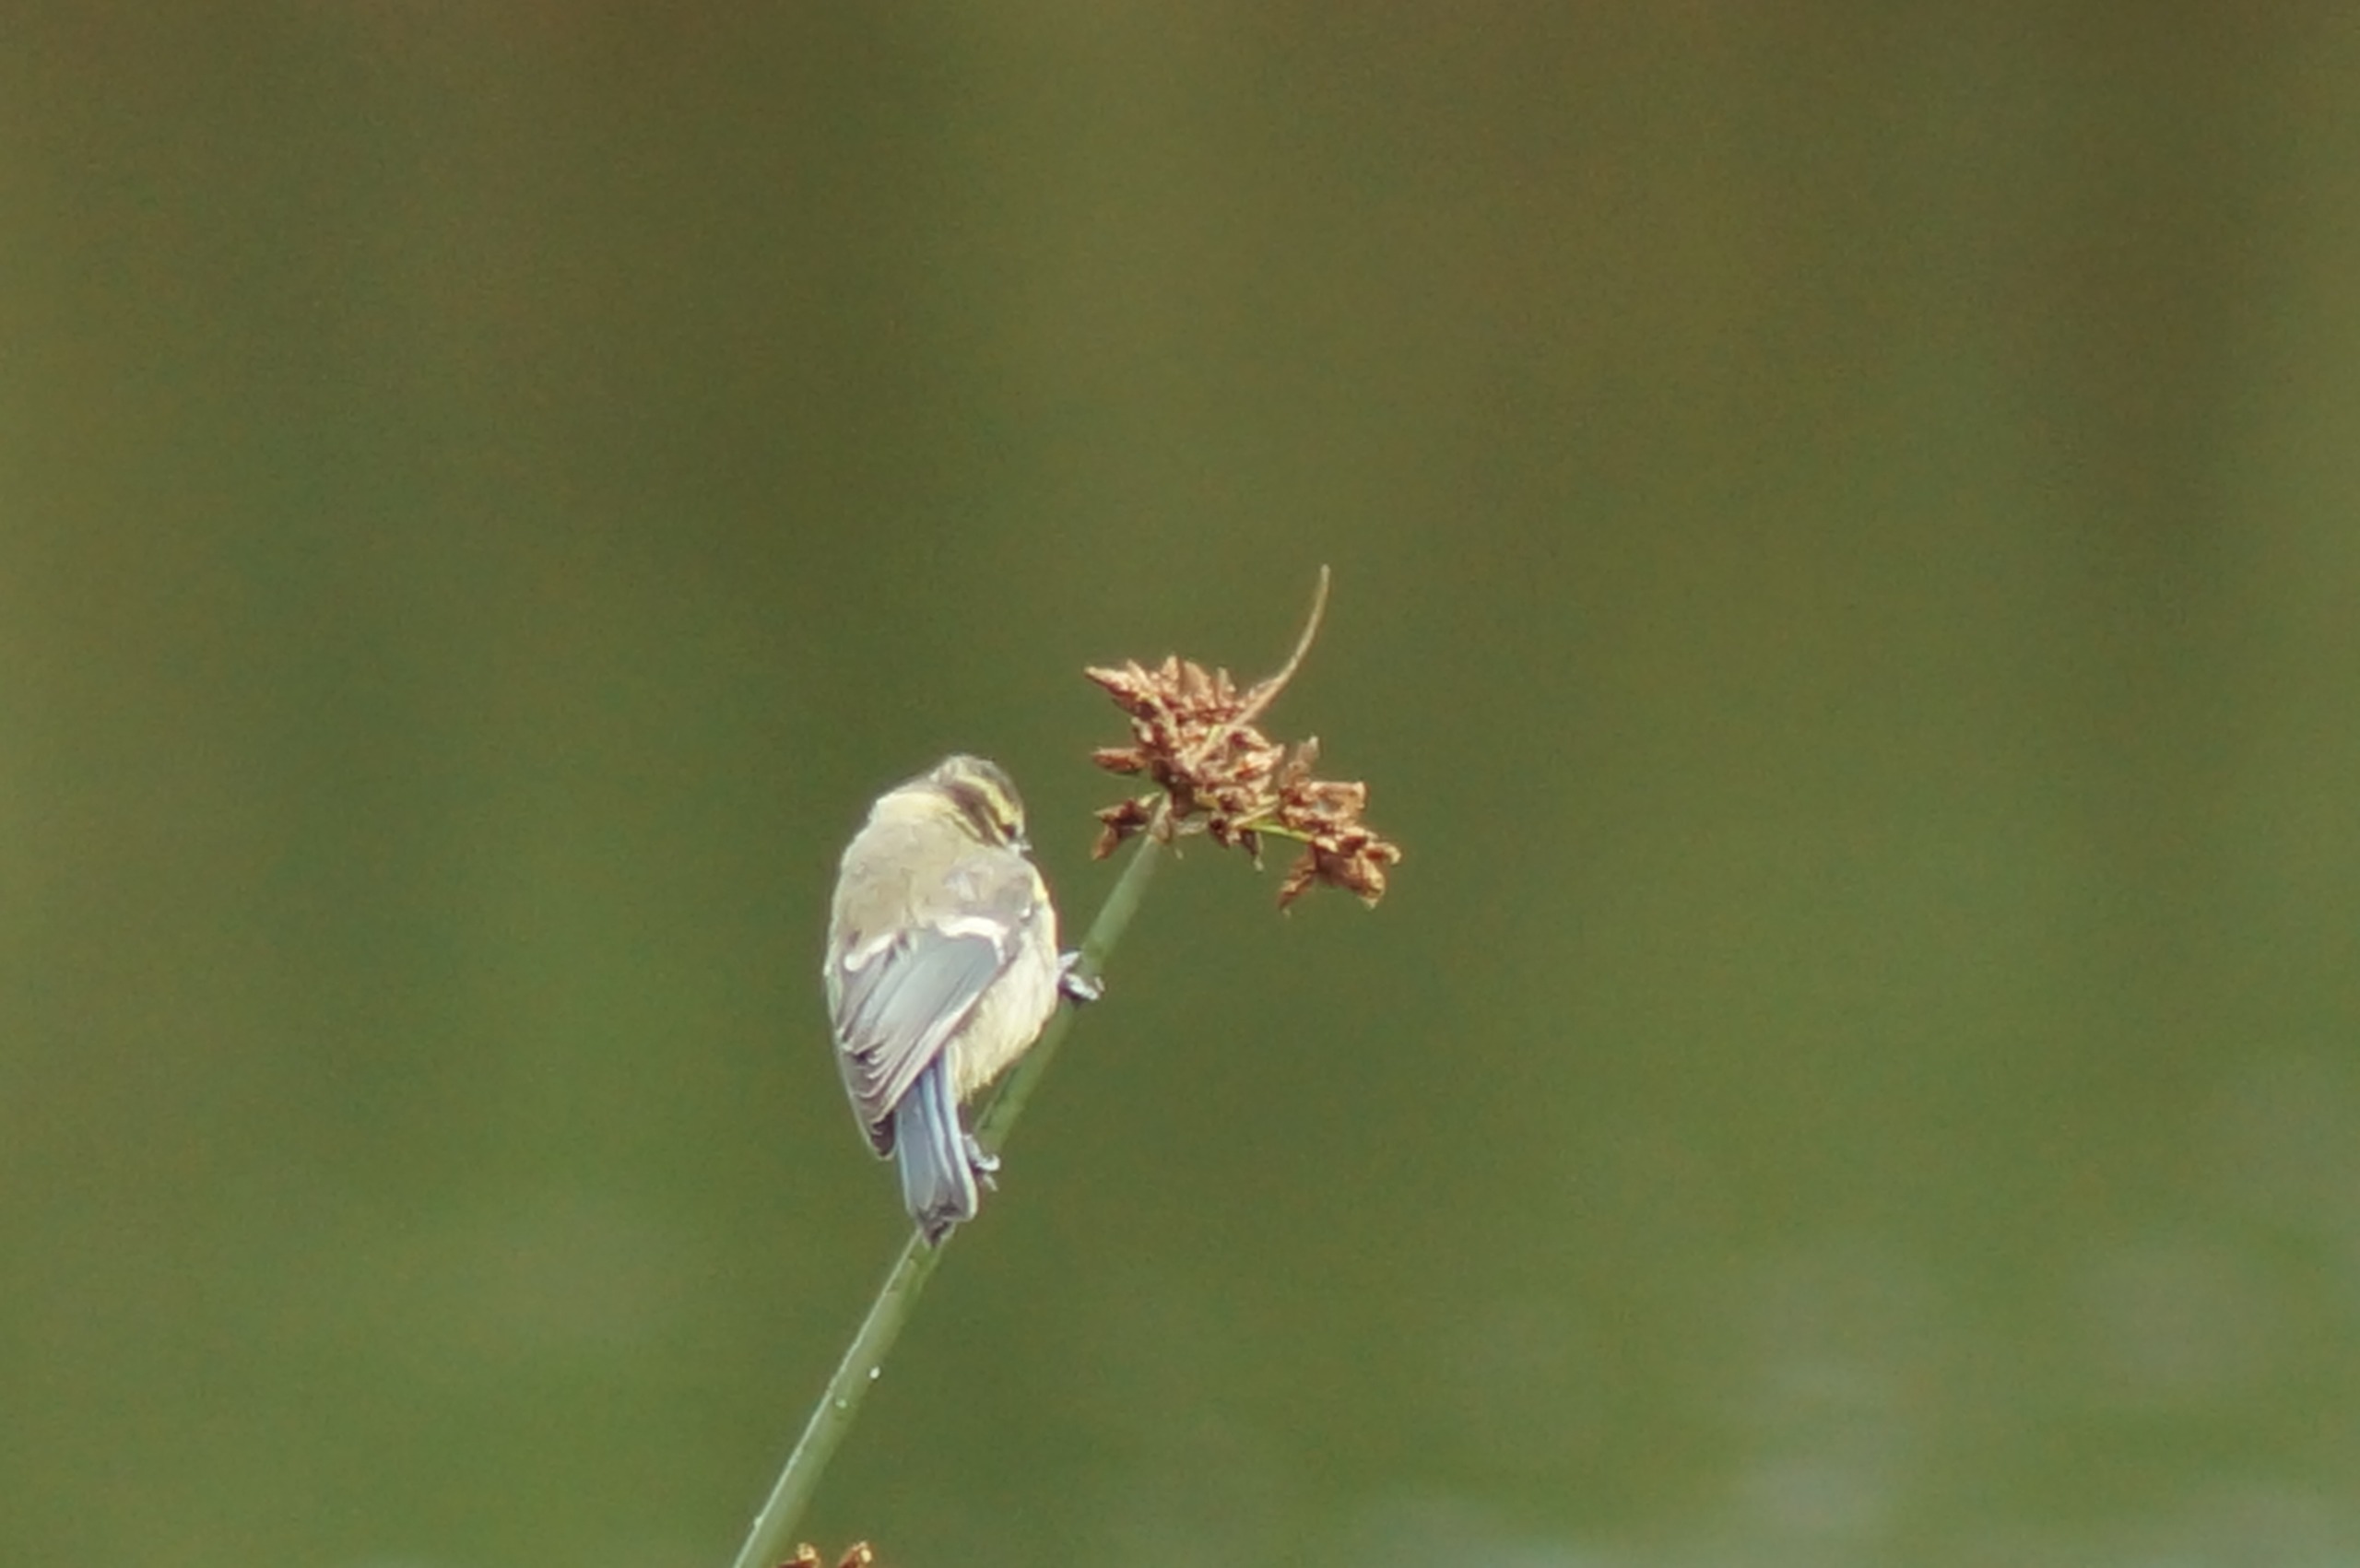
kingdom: Animalia
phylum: Chordata
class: Aves
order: Passeriformes
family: Paridae
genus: Cyanistes
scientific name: Cyanistes caeruleus
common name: Blåmejse
